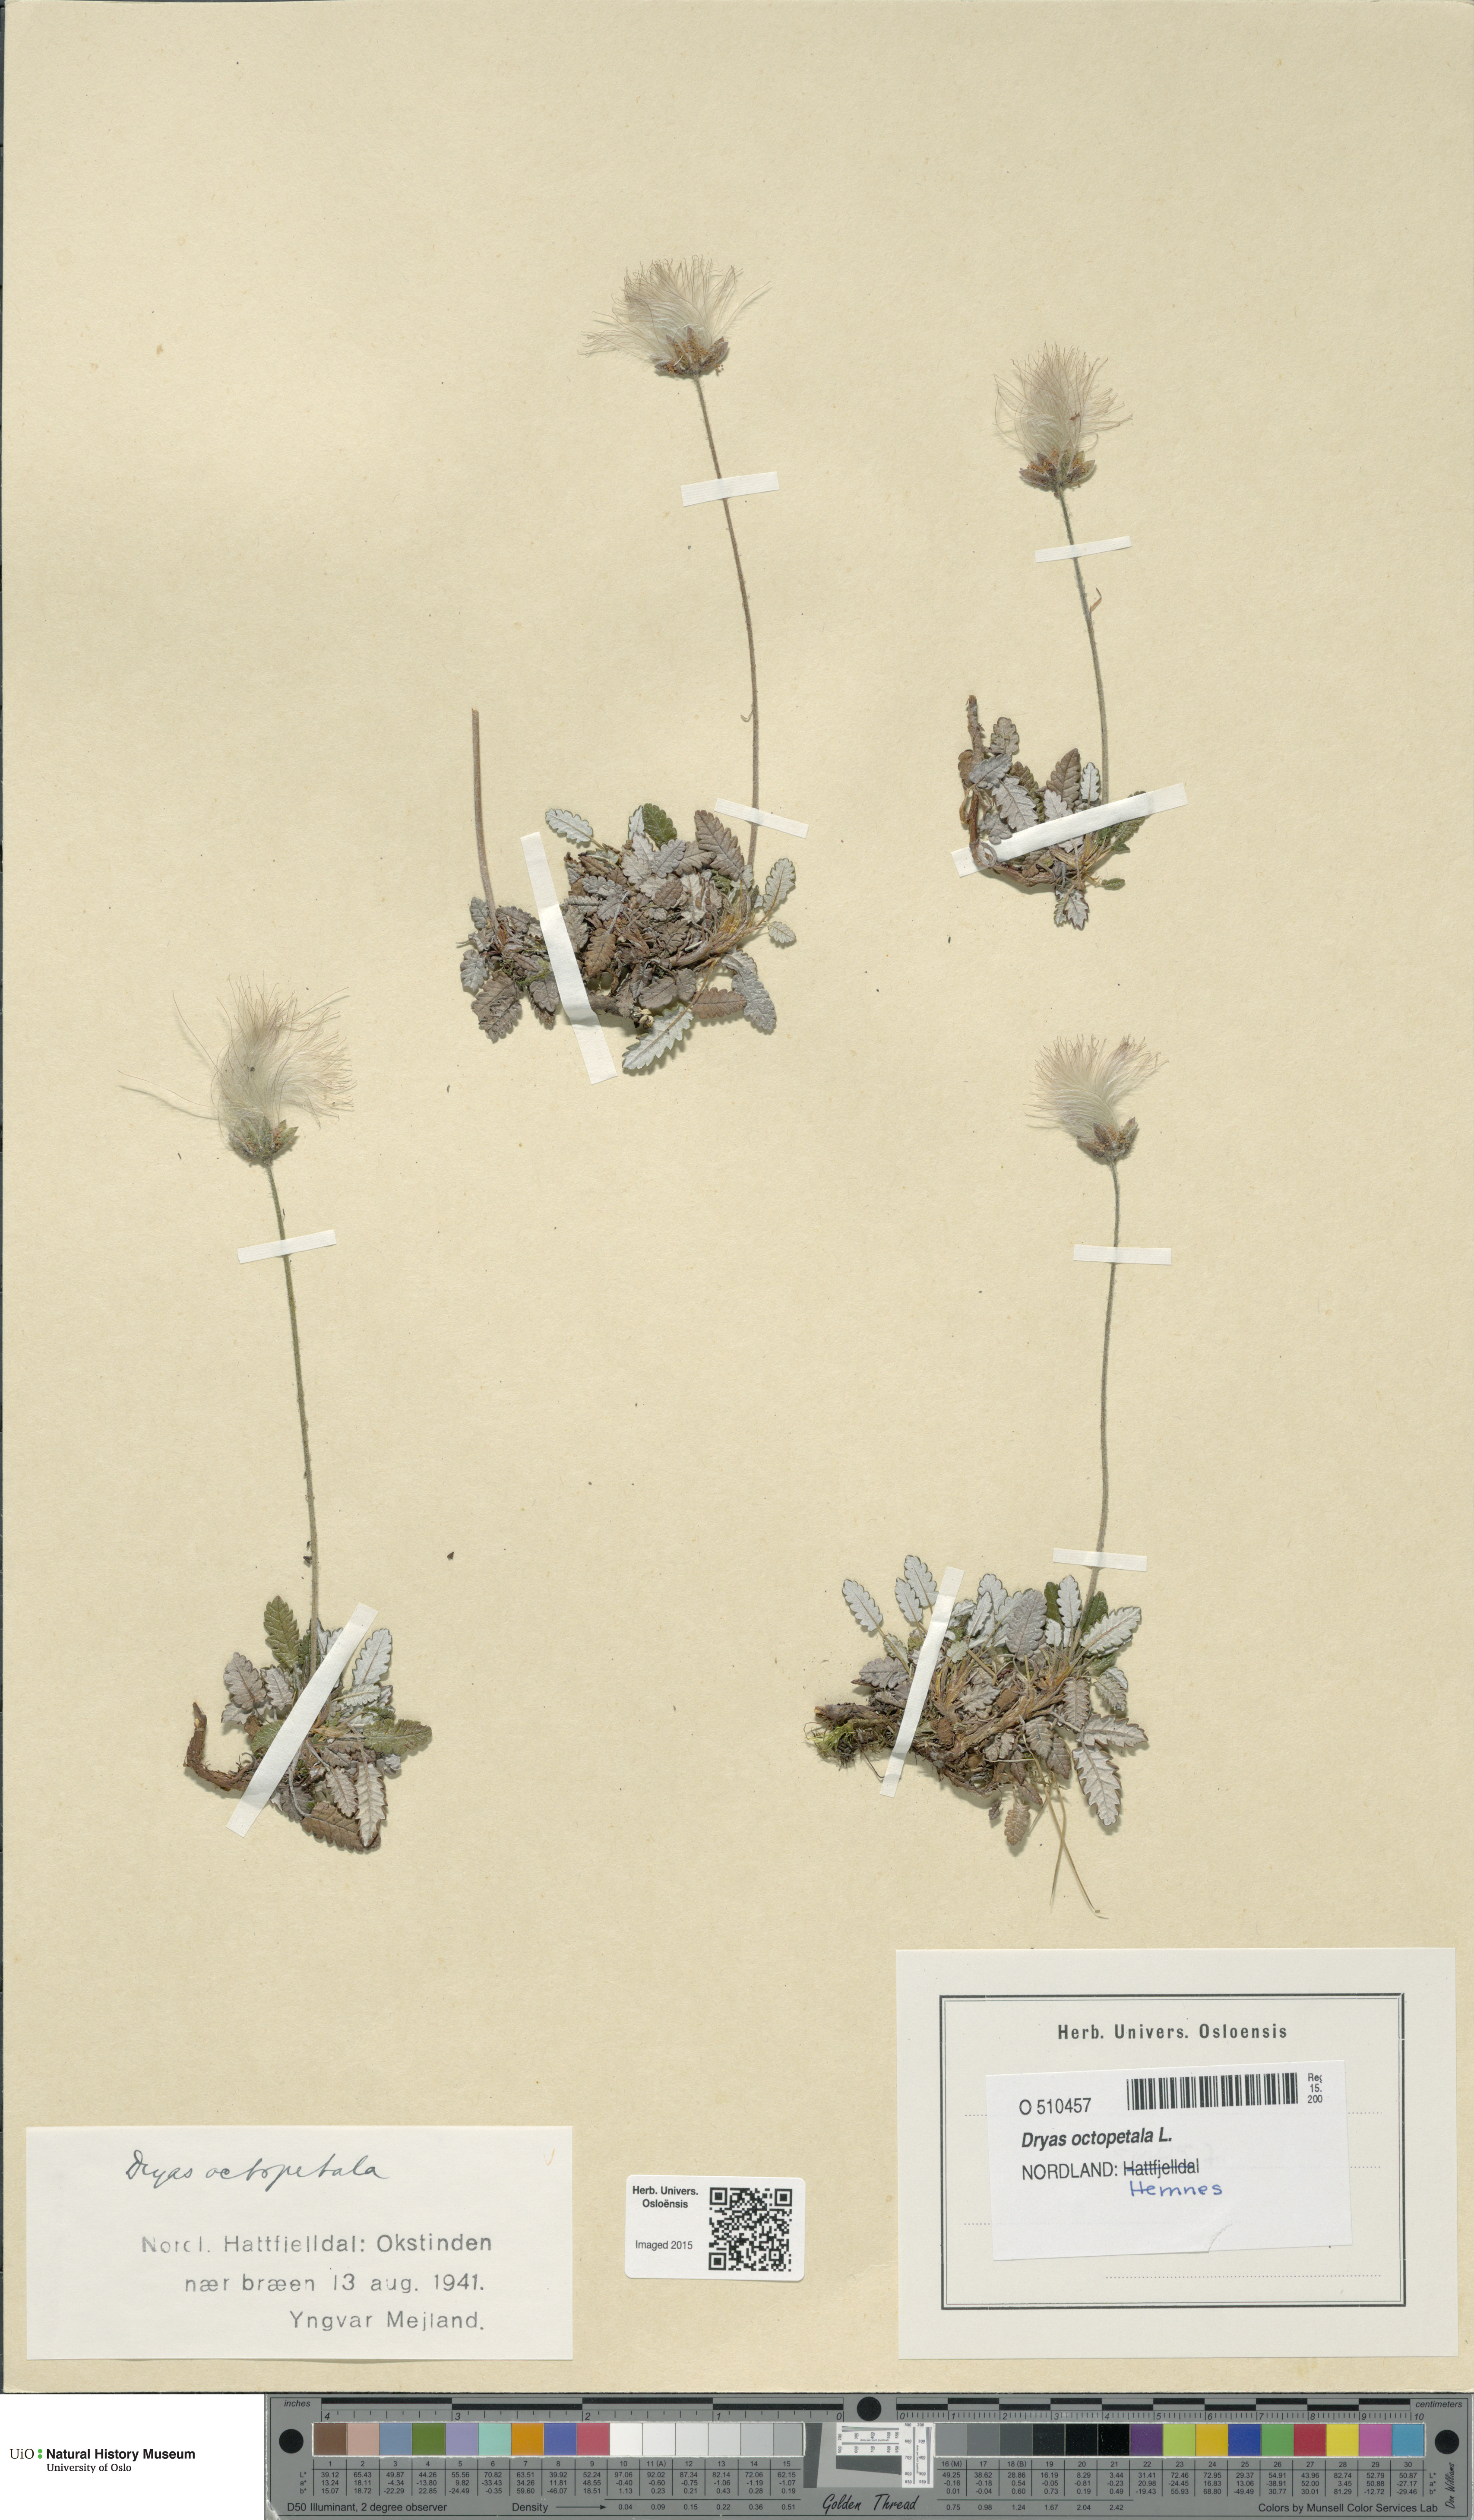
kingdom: Plantae
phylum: Tracheophyta
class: Magnoliopsida
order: Rosales
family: Rosaceae
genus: Dryas
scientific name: Dryas octopetala
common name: Eight-petal mountain-avens
